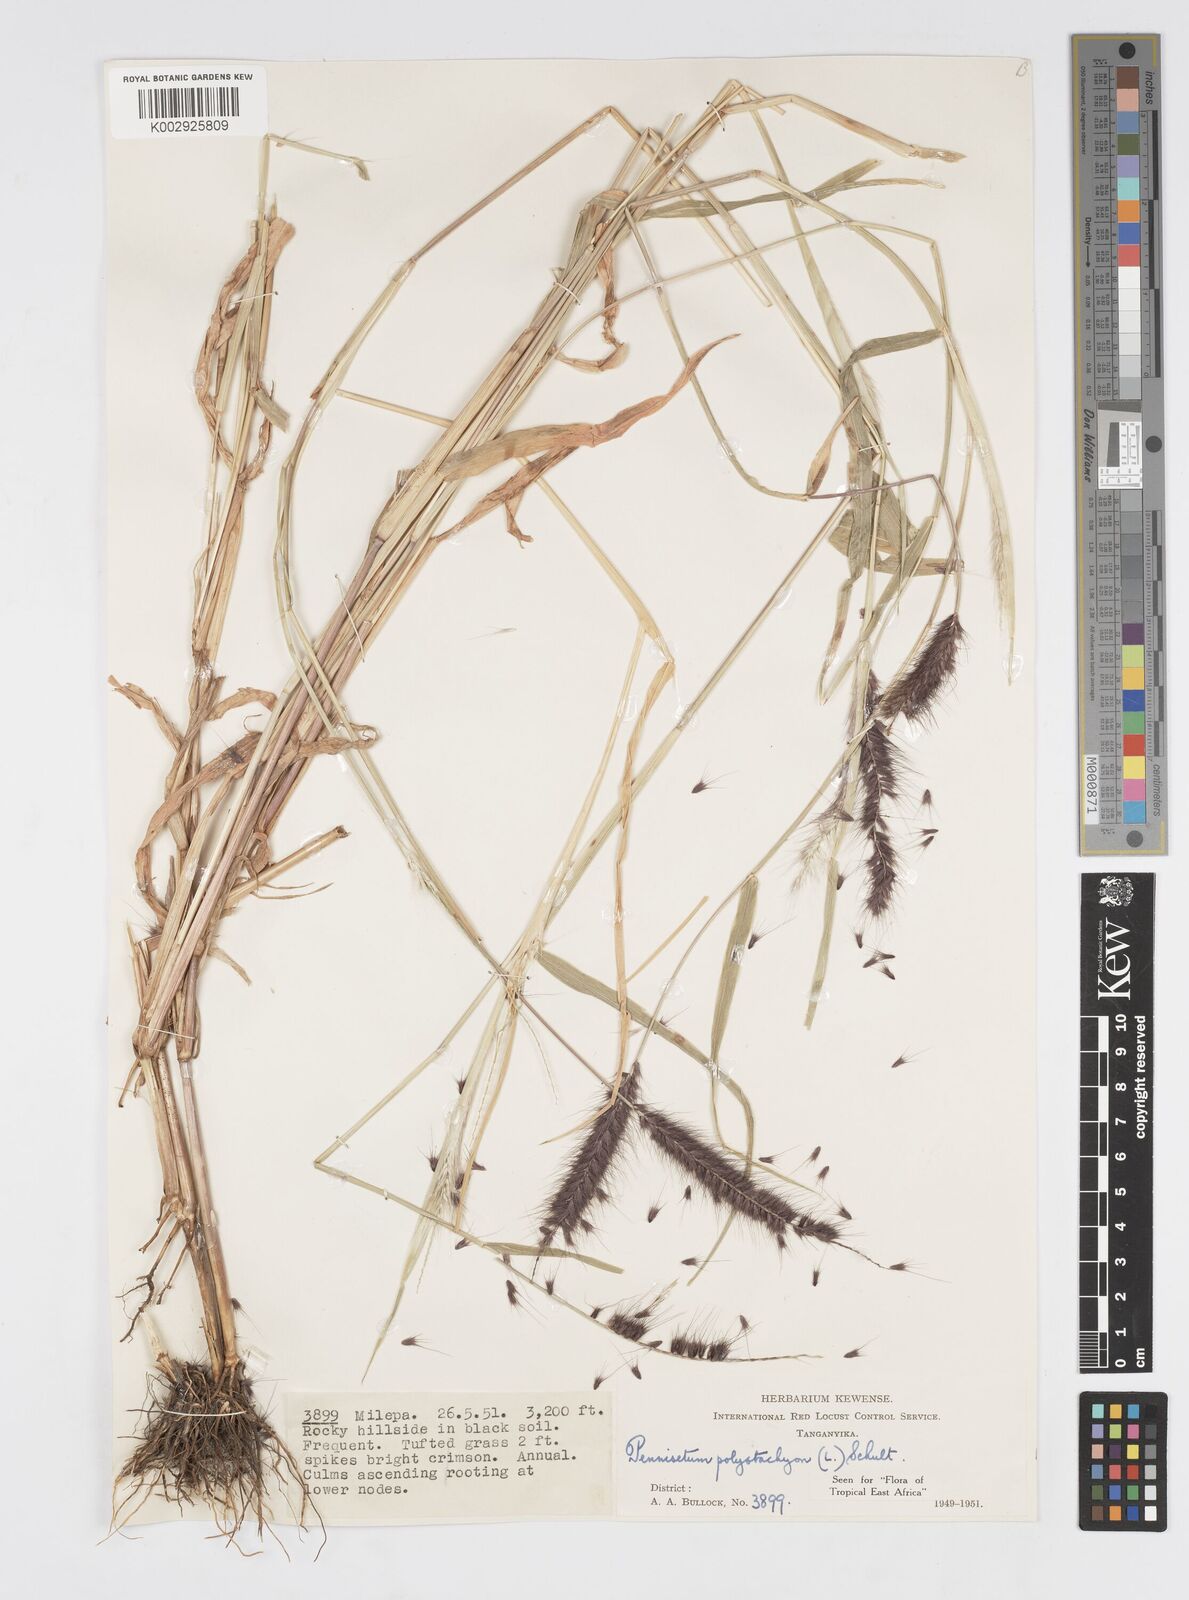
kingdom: Plantae
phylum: Tracheophyta
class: Liliopsida
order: Poales
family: Poaceae
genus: Setaria
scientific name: Setaria parviflora
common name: Knotroot bristle-grass
